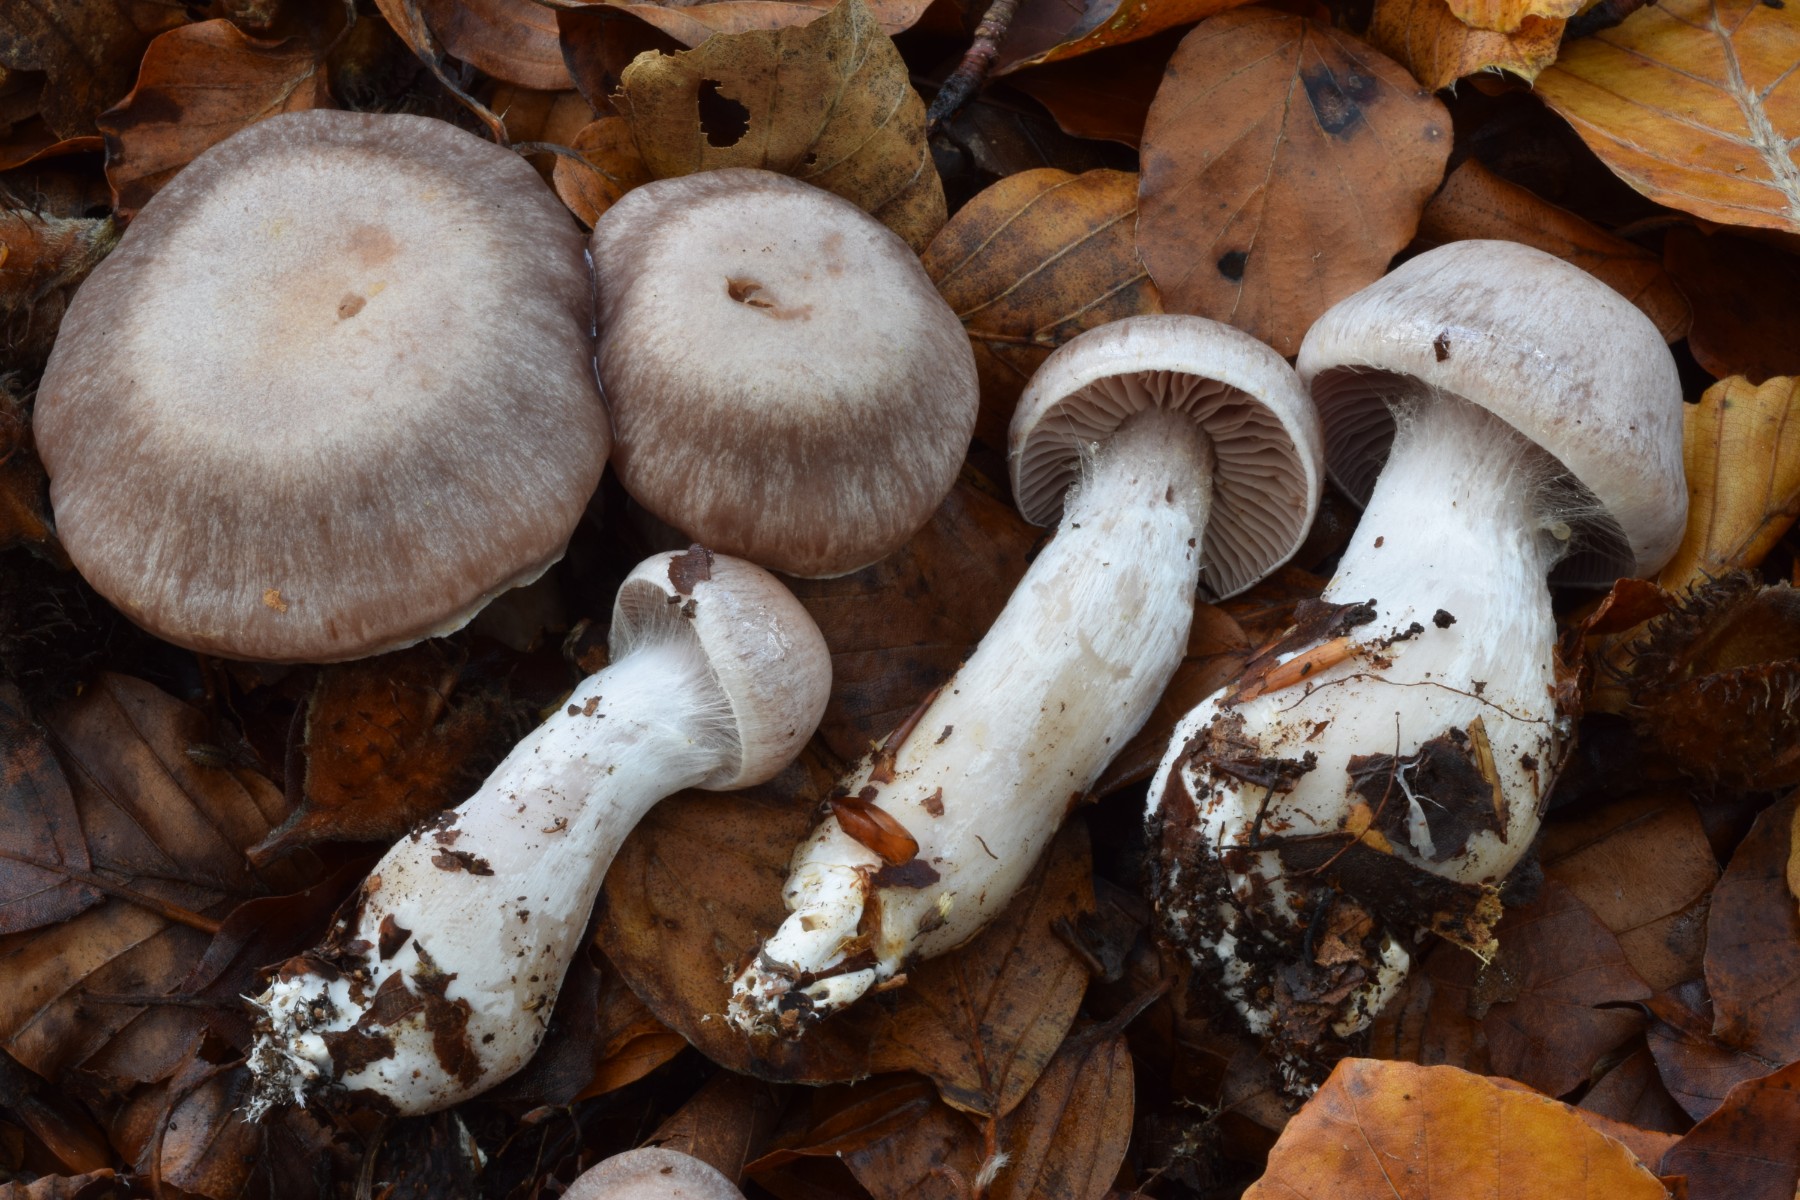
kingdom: Fungi
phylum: Basidiomycota
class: Agaricomycetes
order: Agaricales
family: Cortinariaceae
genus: Cortinarius
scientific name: Cortinarius
